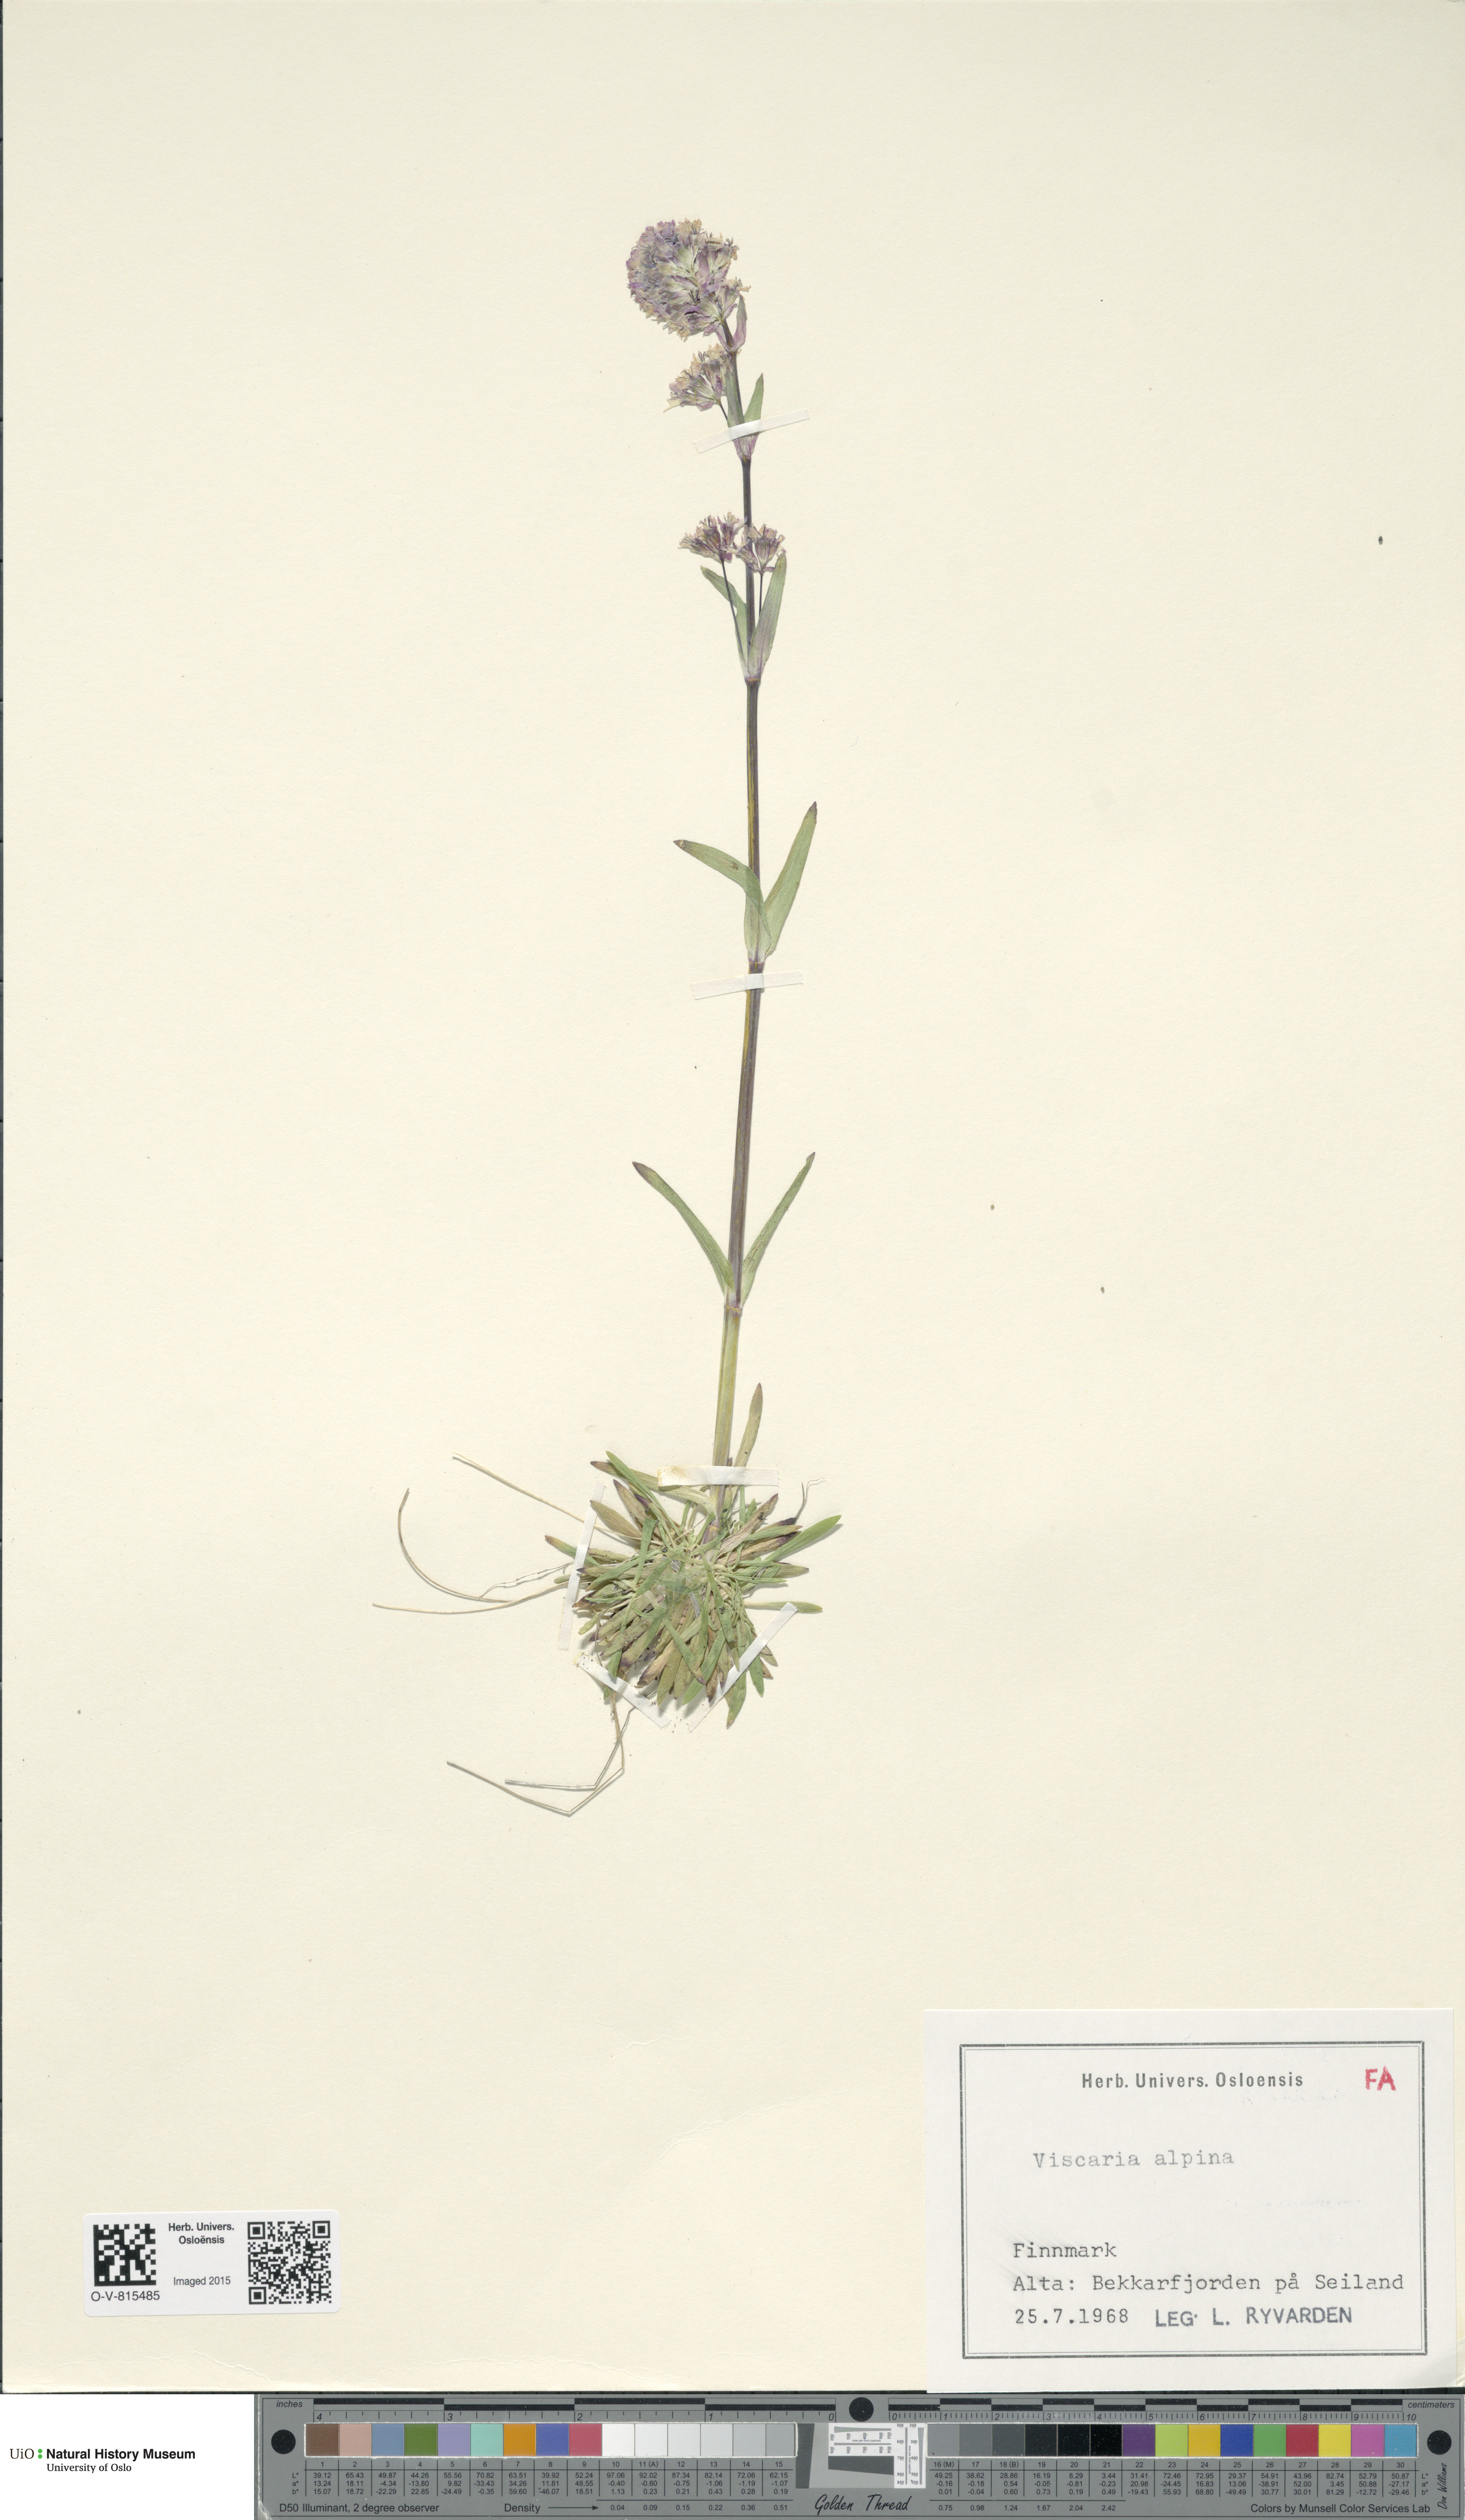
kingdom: Plantae
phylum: Tracheophyta
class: Magnoliopsida
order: Caryophyllales
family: Caryophyllaceae
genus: Viscaria
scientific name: Viscaria alpina
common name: Alpine campion
